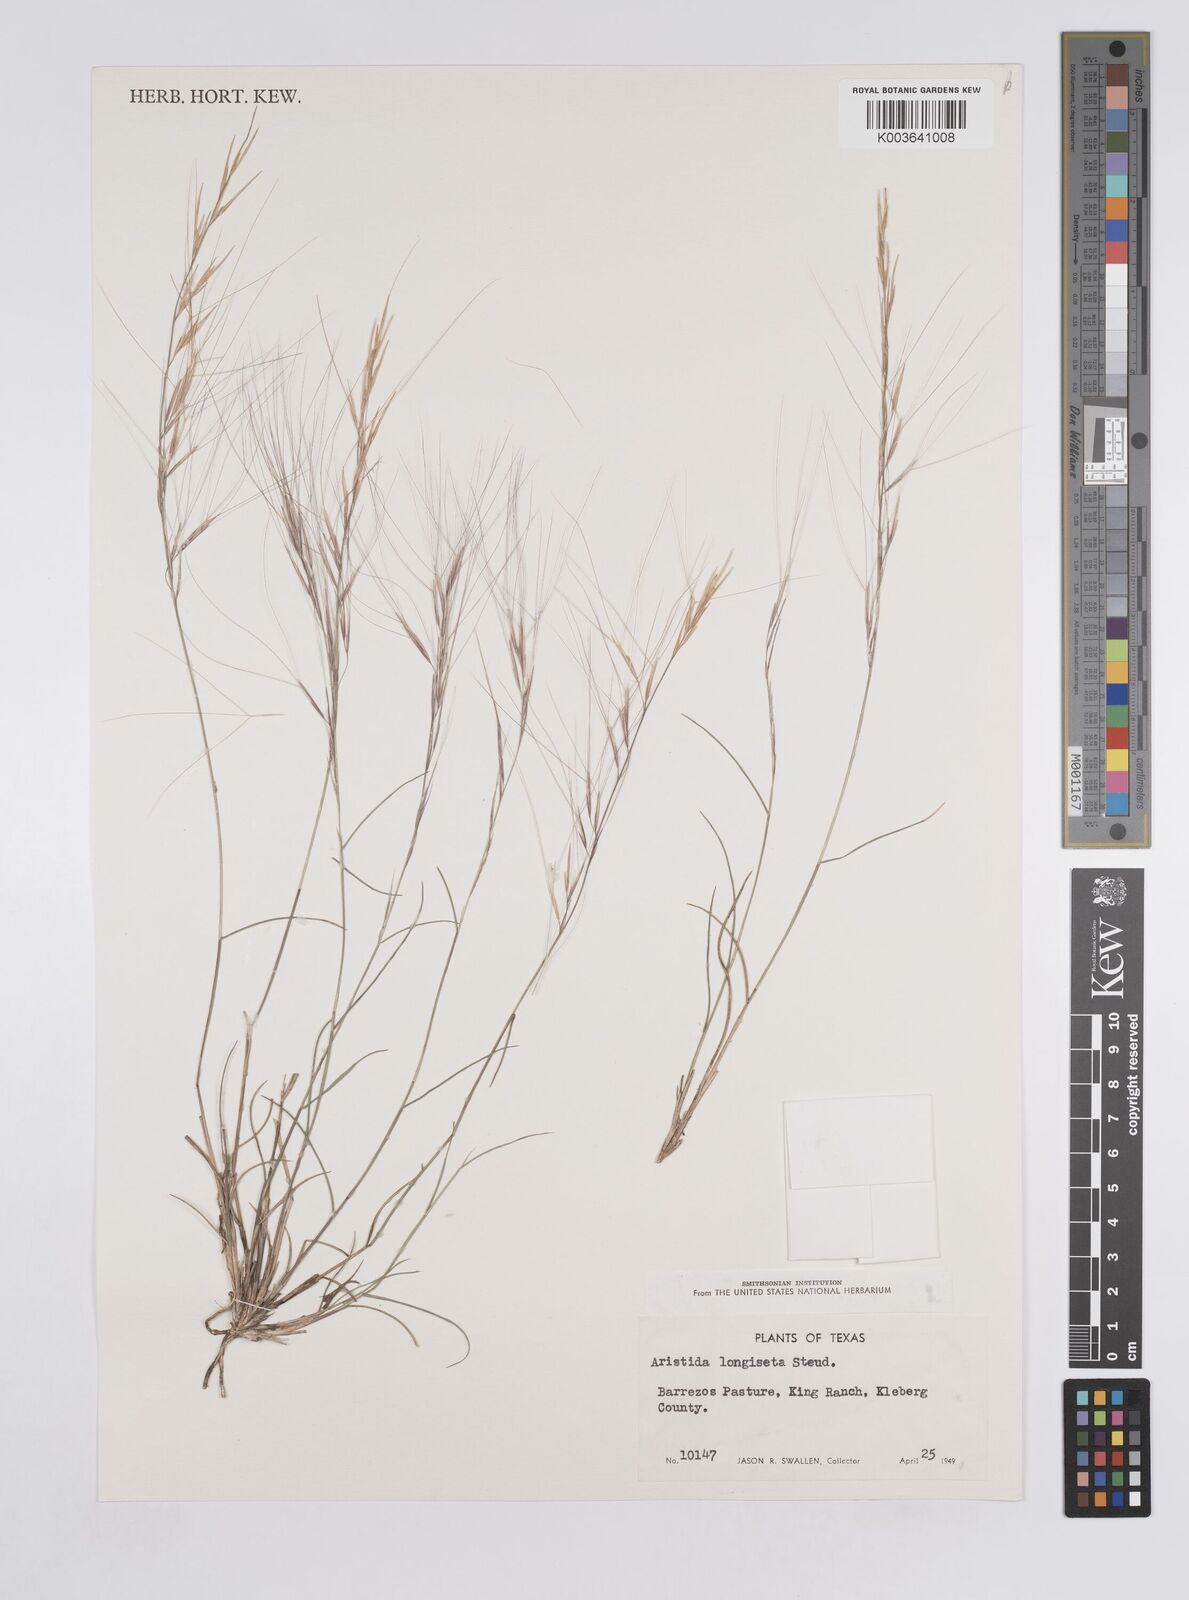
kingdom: Plantae
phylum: Tracheophyta
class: Liliopsida
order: Poales
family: Poaceae
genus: Aristida
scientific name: Aristida purpurea
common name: Purple threeawn
